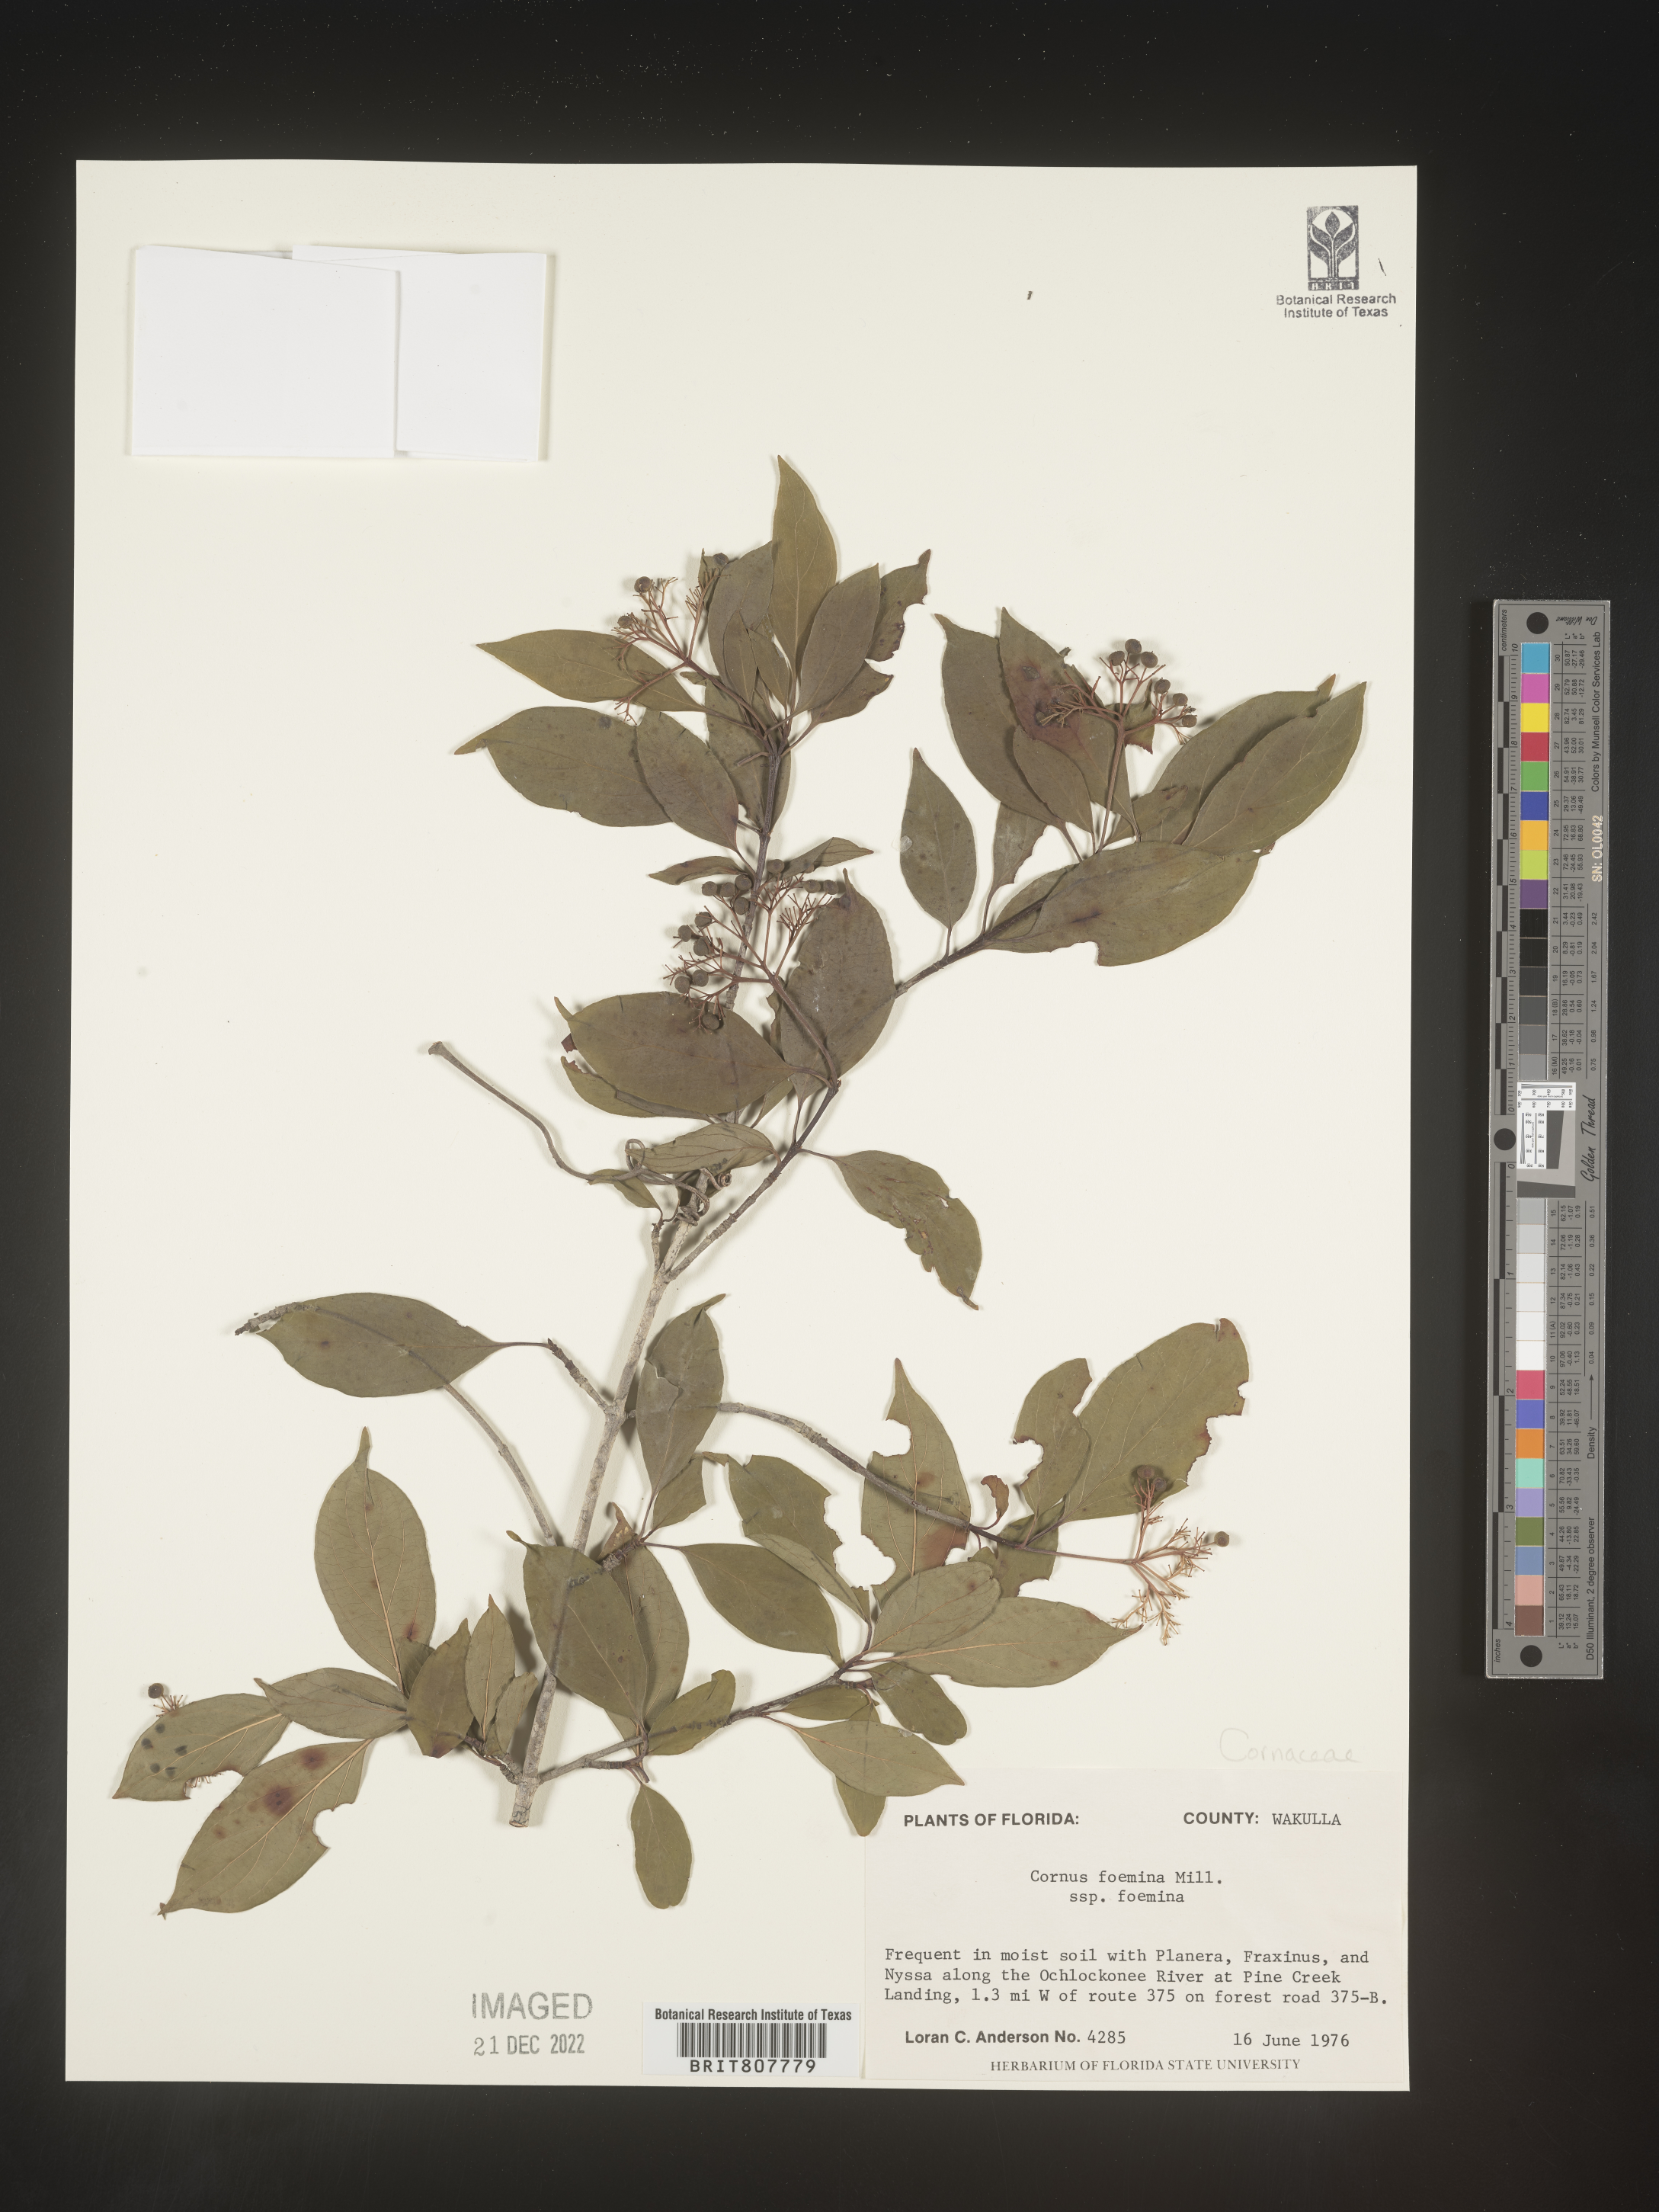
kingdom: Plantae
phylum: Tracheophyta
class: Magnoliopsida
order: Cornales
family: Cornaceae
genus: Cornus
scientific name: Cornus foemina
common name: Swamp dogwood
